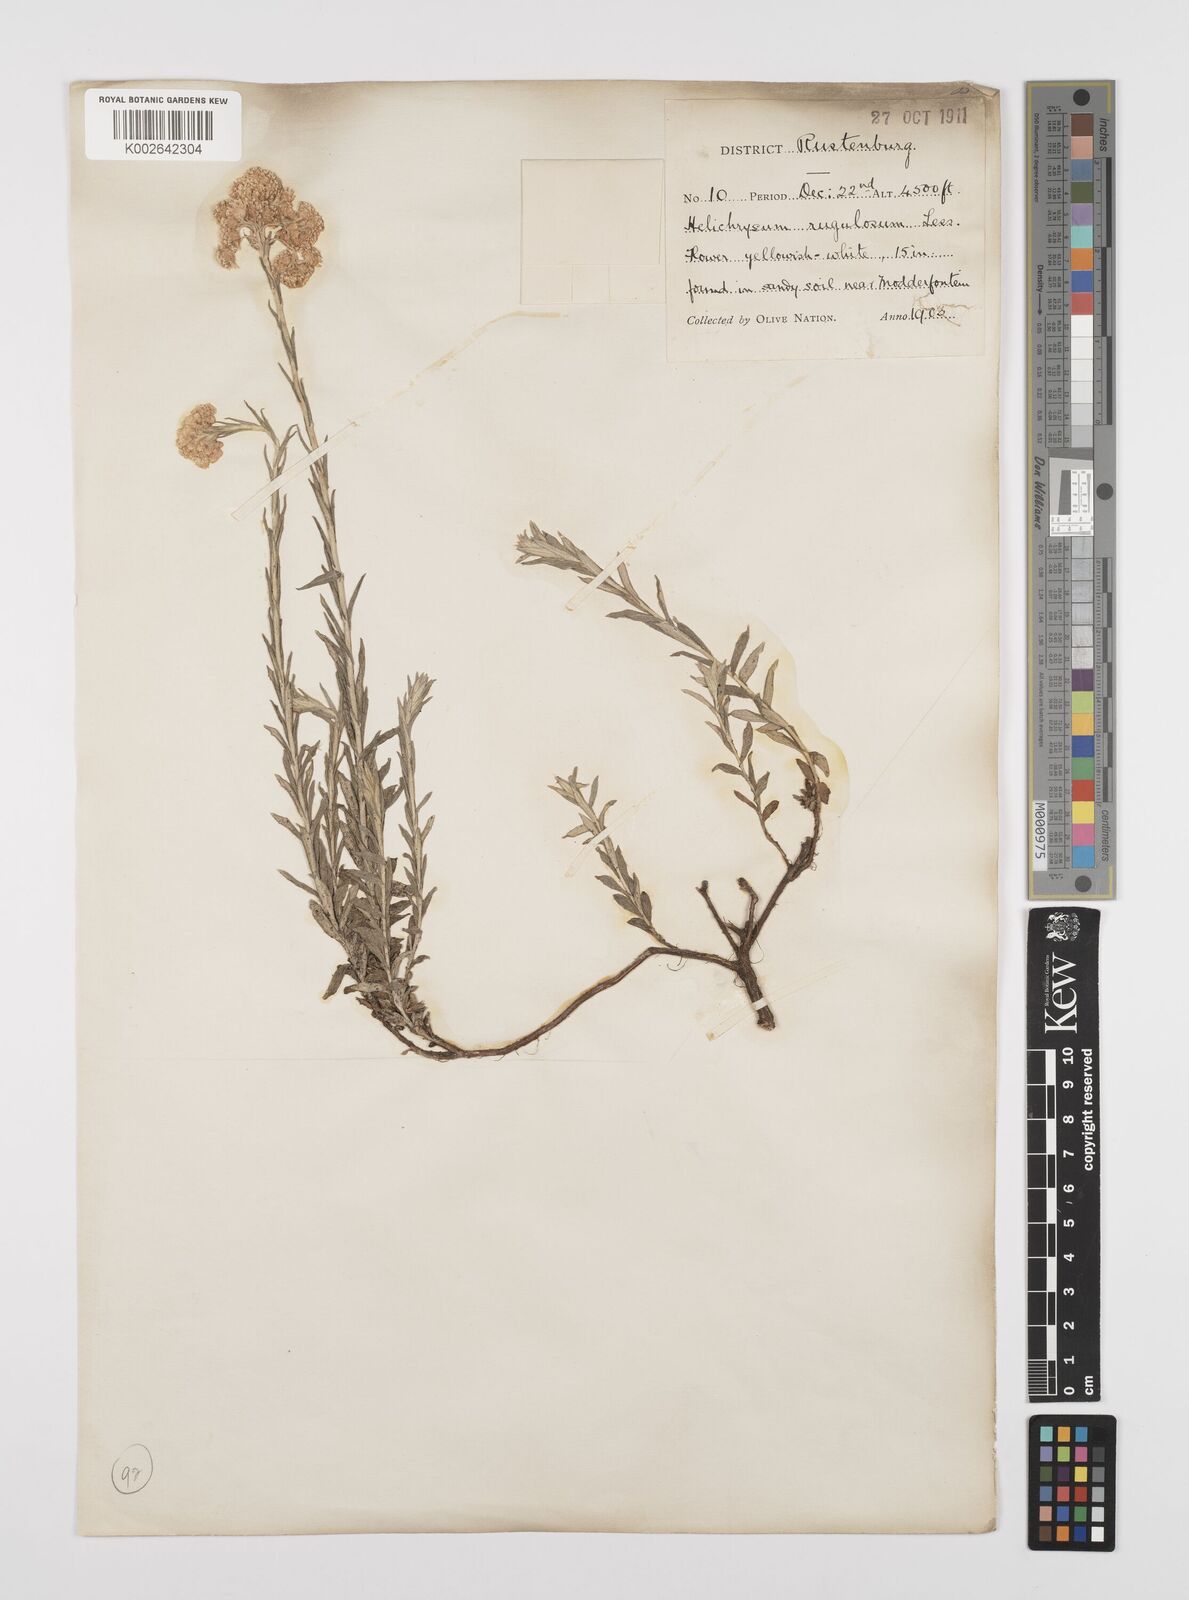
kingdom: Plantae
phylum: Tracheophyta
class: Magnoliopsida
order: Asterales
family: Asteraceae
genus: Helichrysum
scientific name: Helichrysum rugulosum
